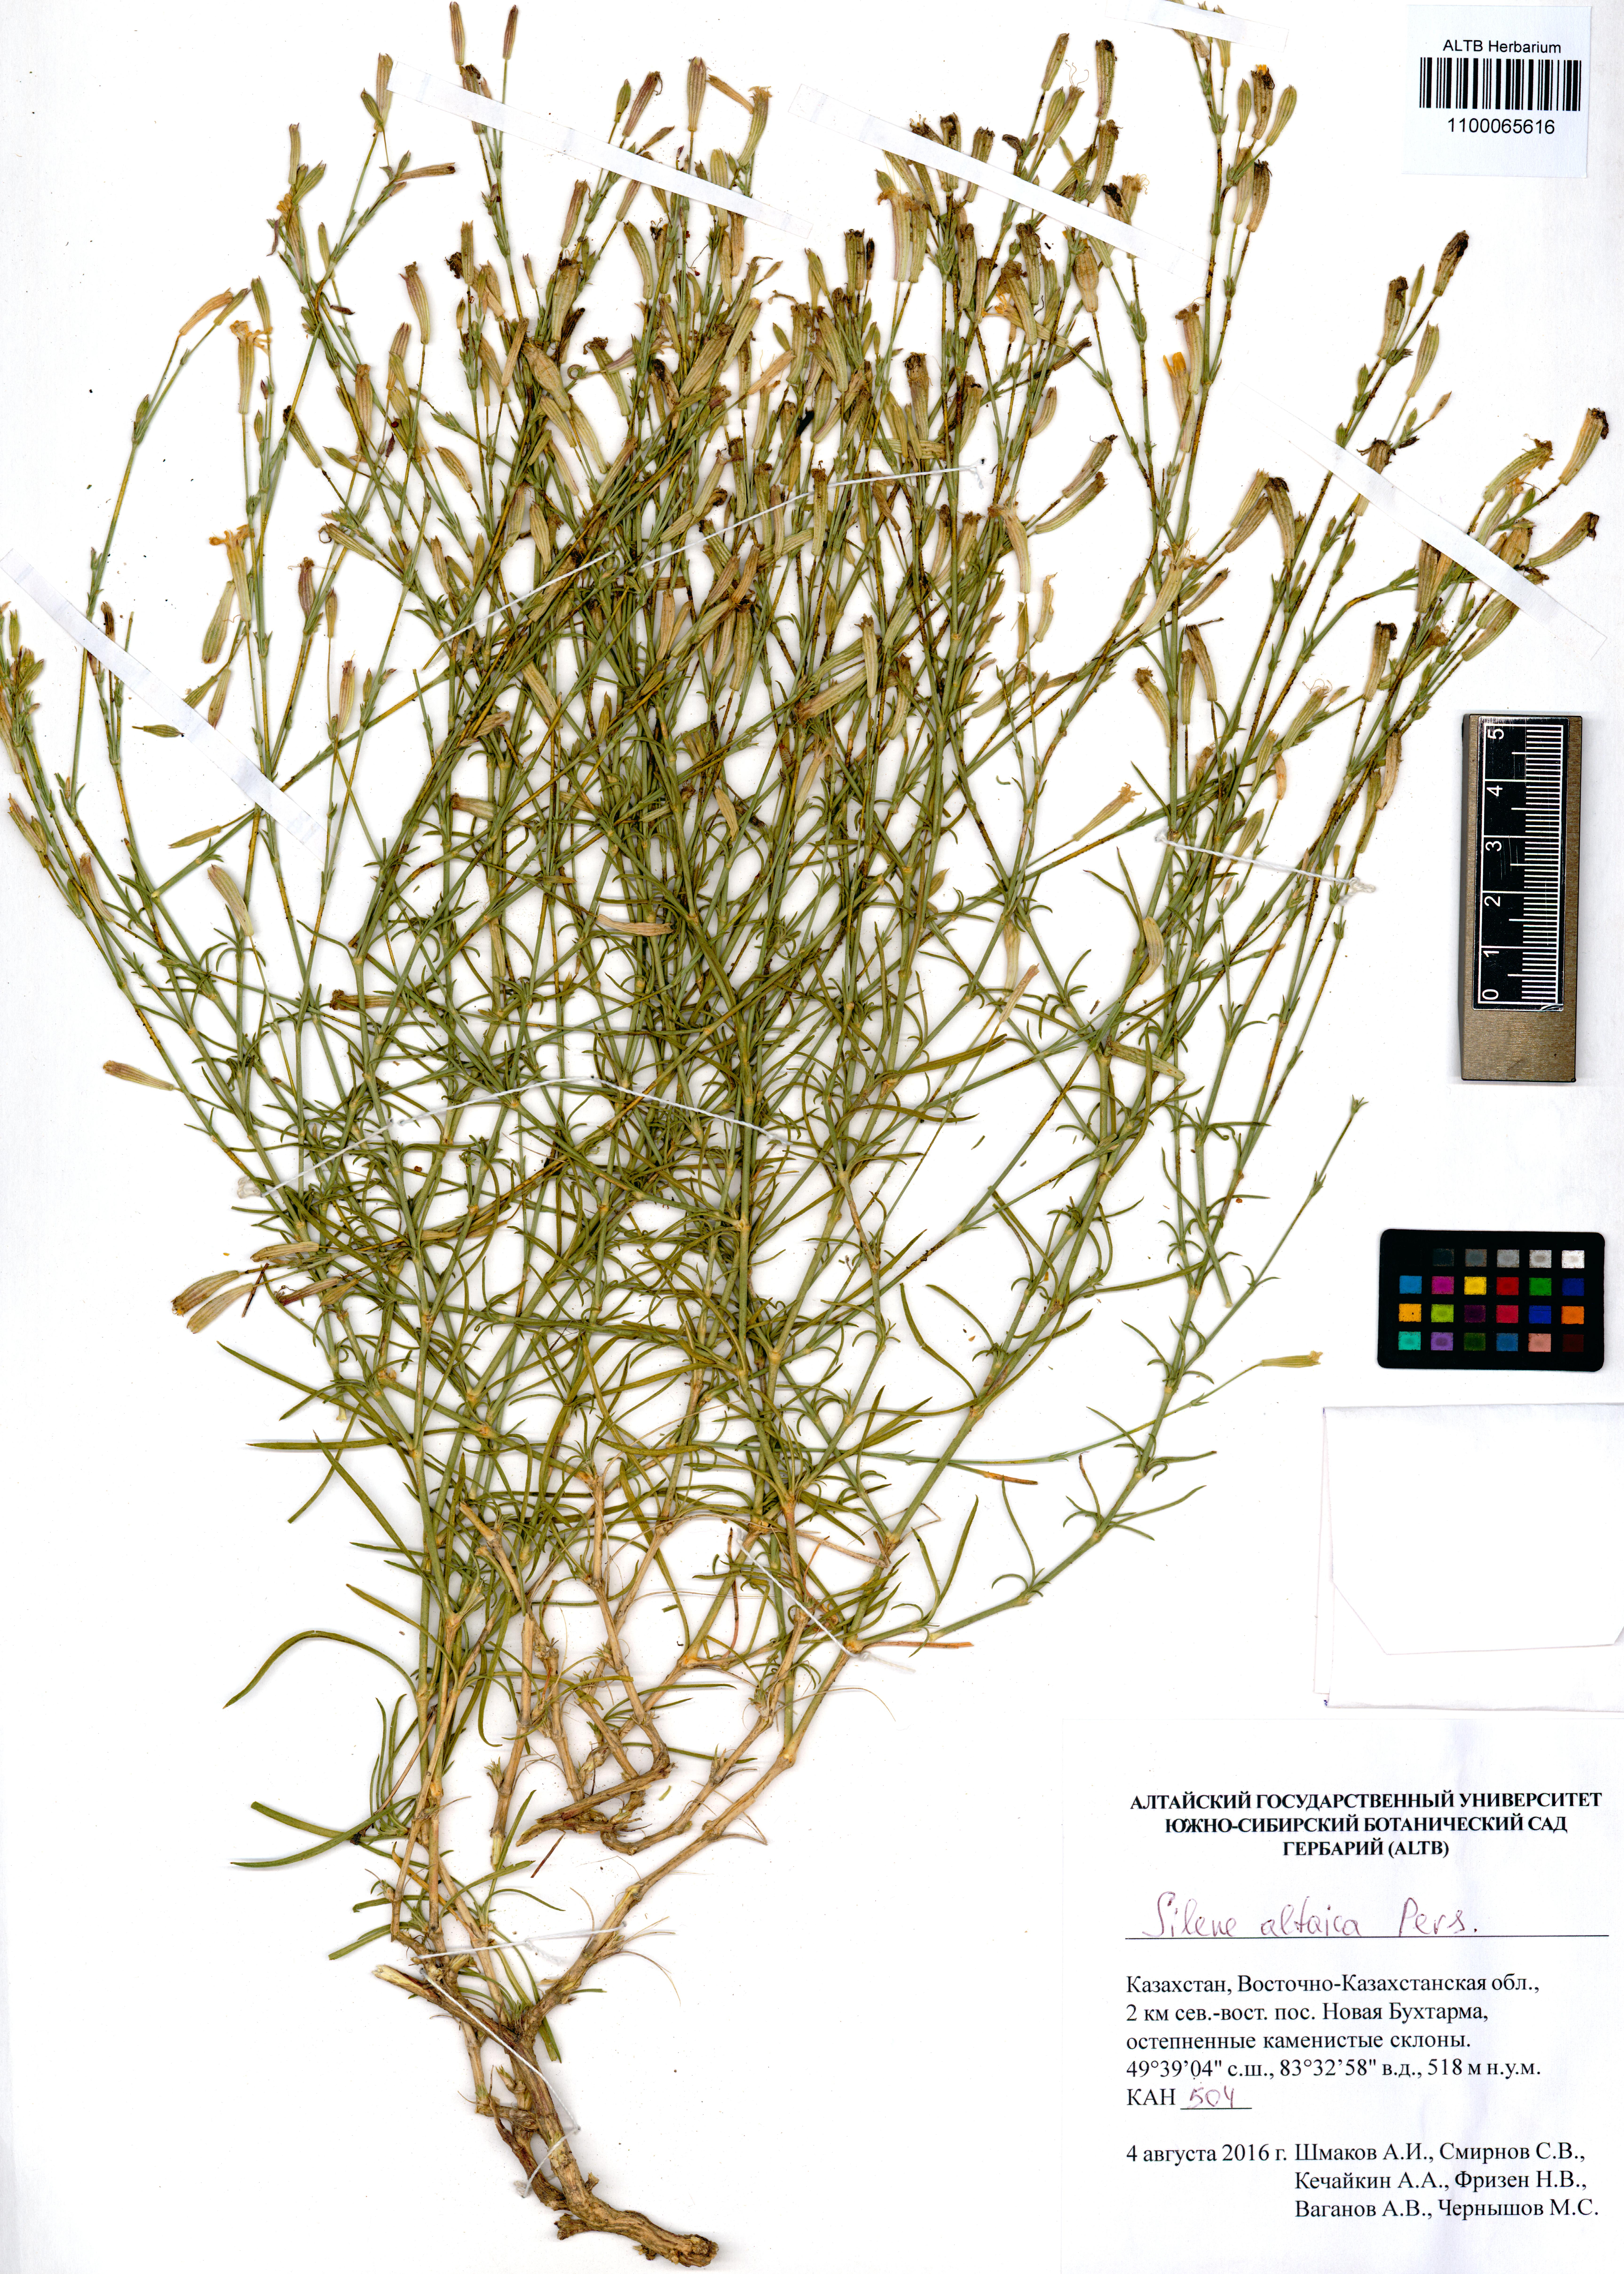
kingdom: Plantae
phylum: Tracheophyta
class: Magnoliopsida
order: Caryophyllales
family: Caryophyllaceae
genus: Silene
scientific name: Silene altaica
